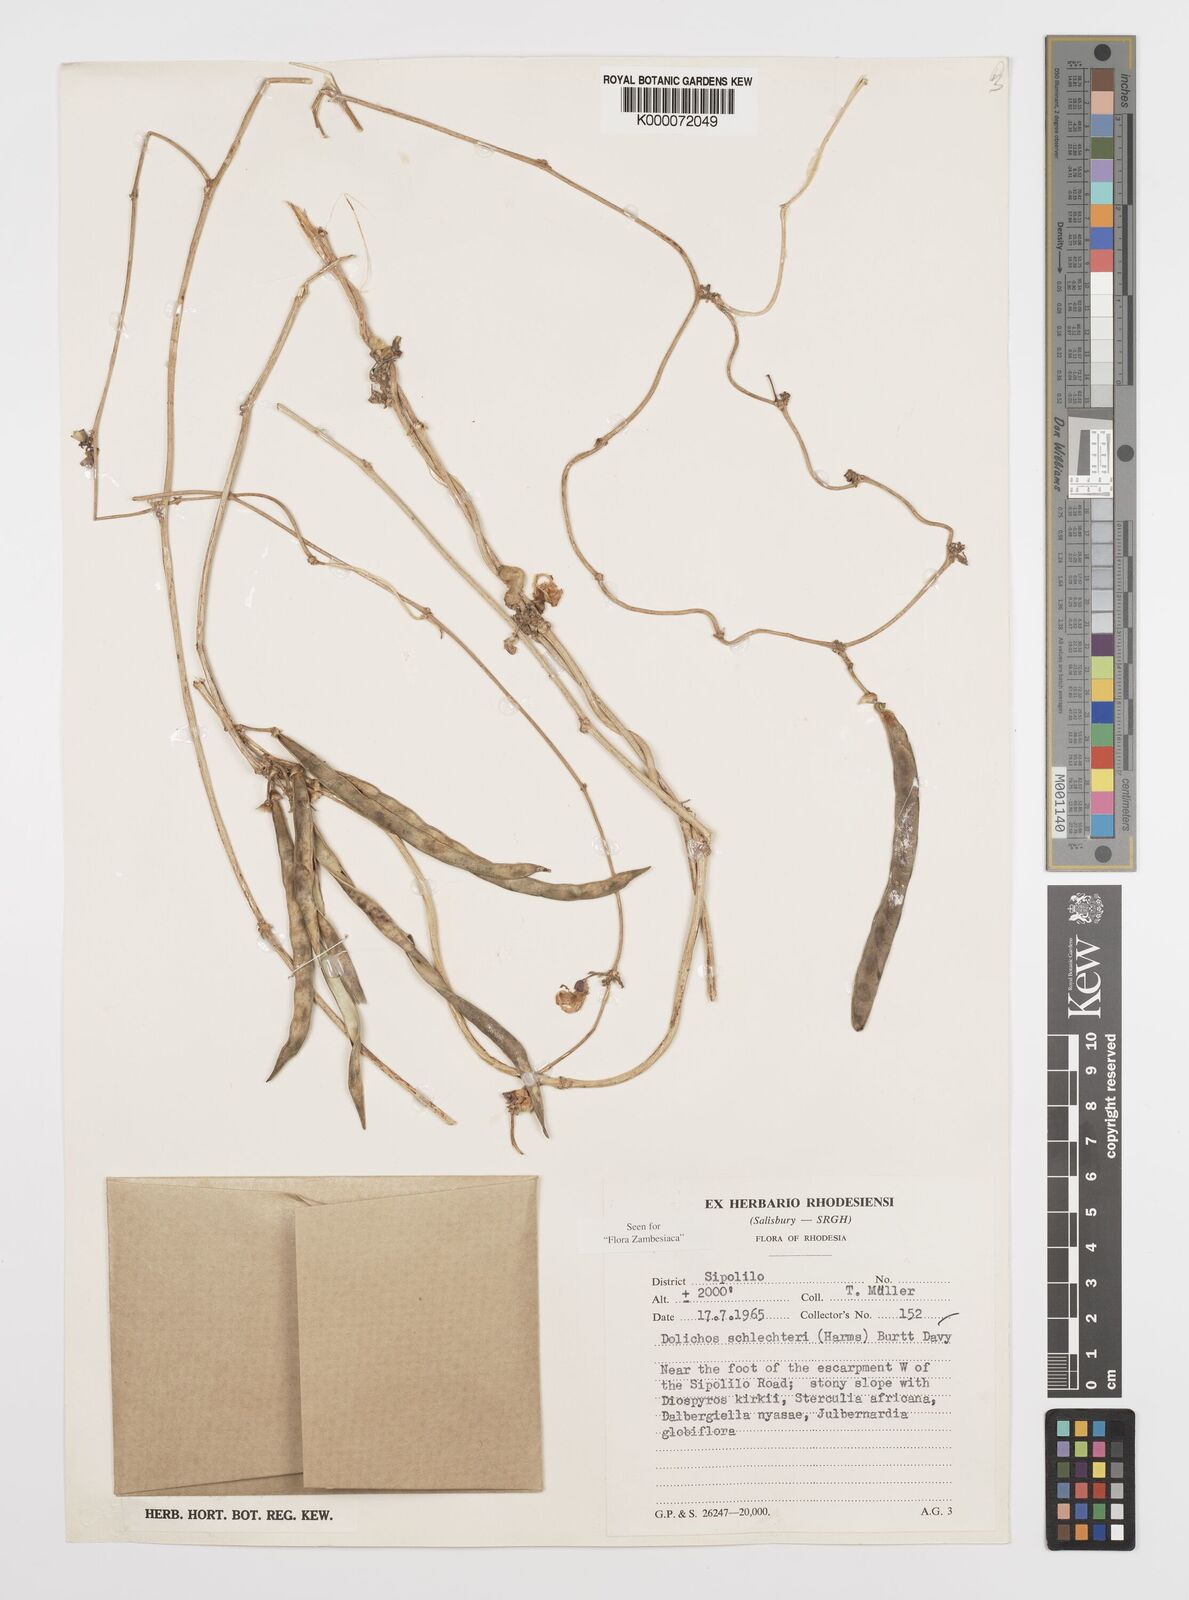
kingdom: Plantae
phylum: Tracheophyta
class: Magnoliopsida
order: Fabales
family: Fabaceae
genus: Decorsea
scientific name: Decorsea schlechteri
